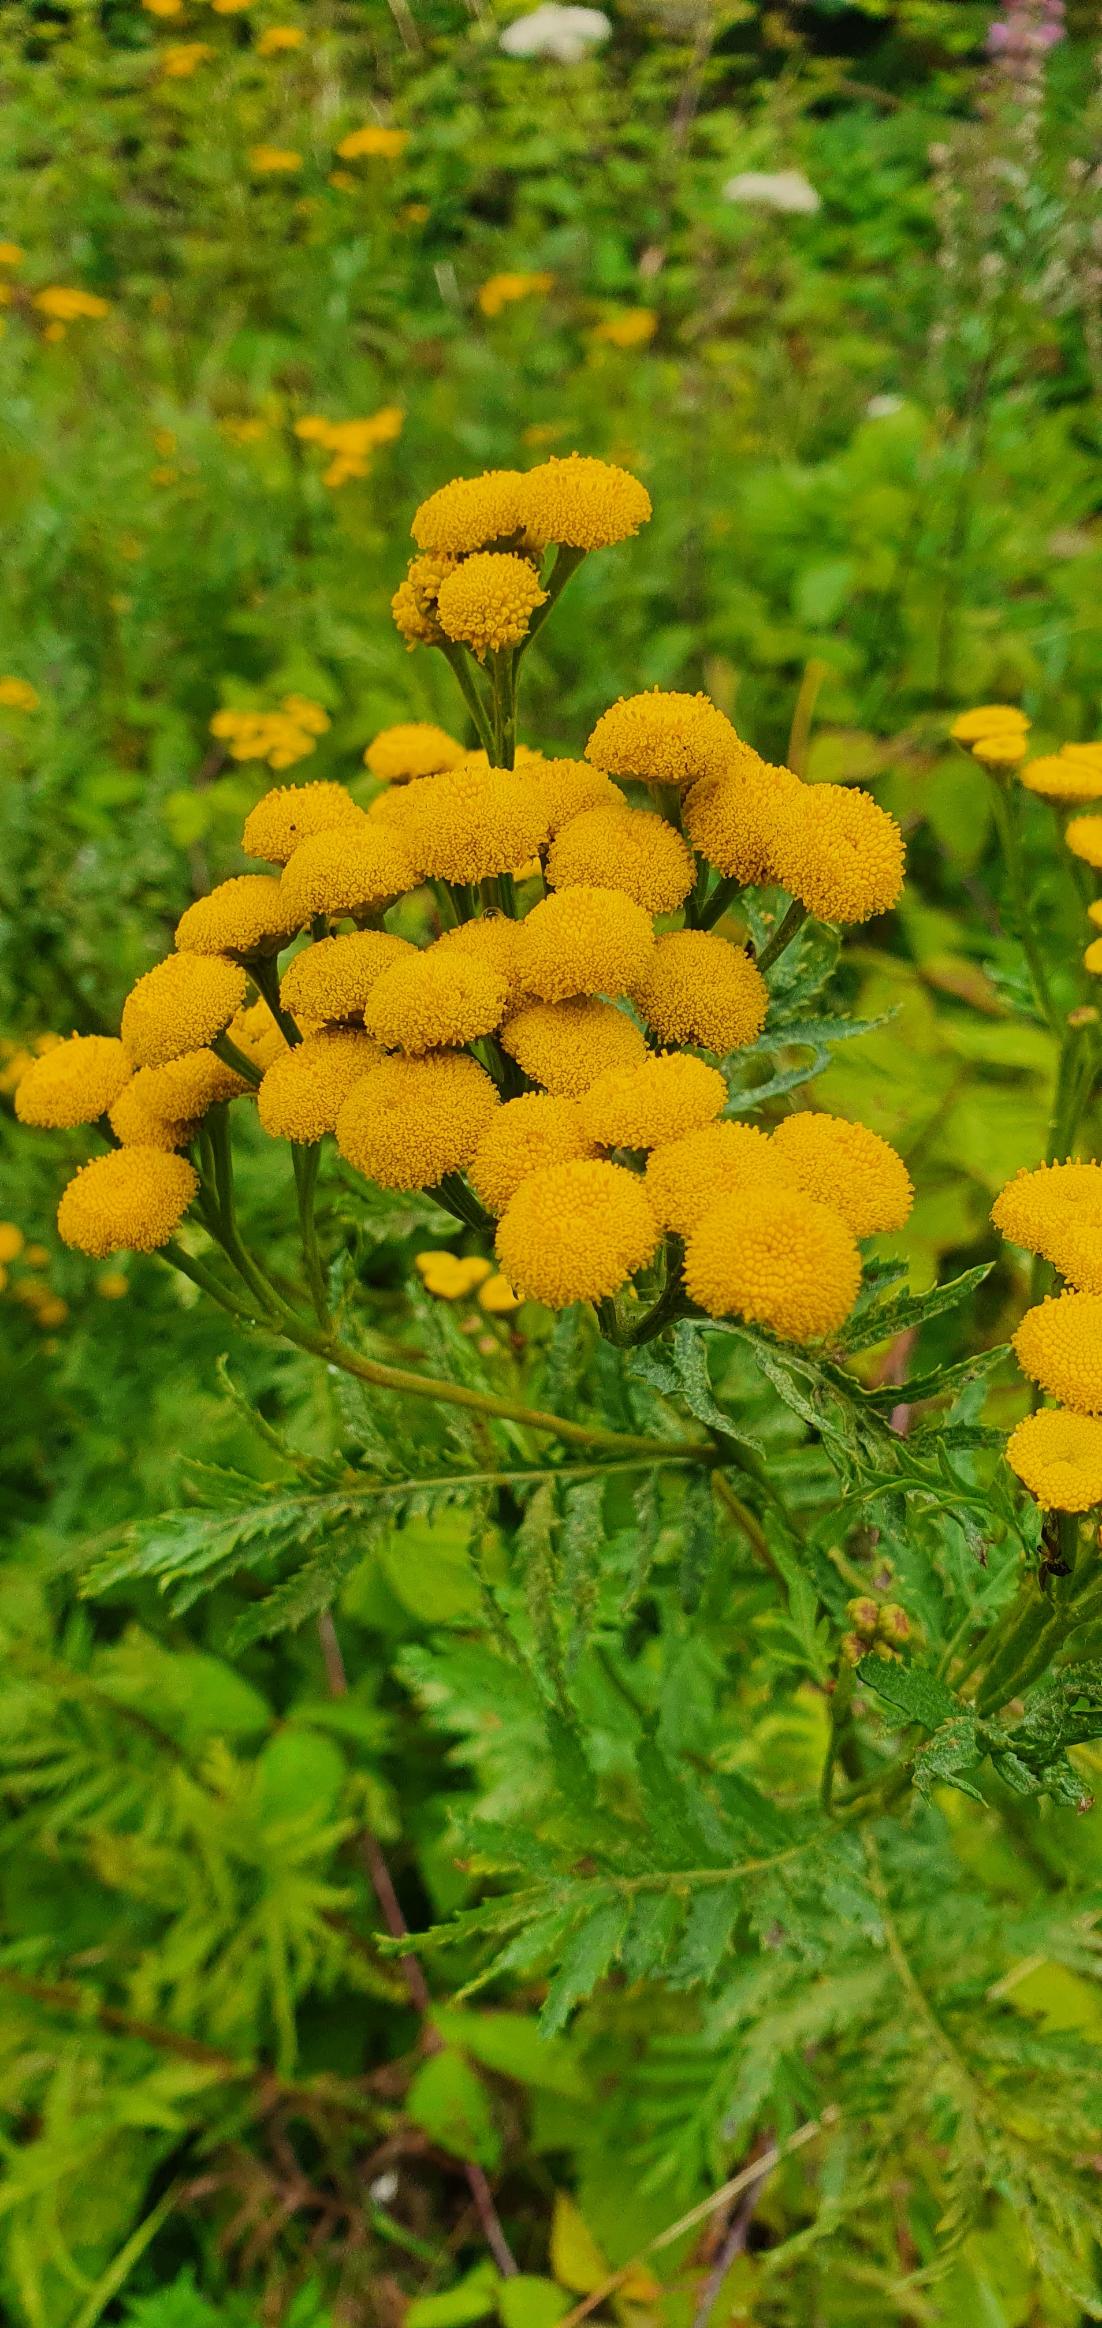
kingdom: Plantae
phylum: Tracheophyta
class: Magnoliopsida
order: Asterales
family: Asteraceae
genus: Tanacetum
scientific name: Tanacetum vulgare
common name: Rejnfan
